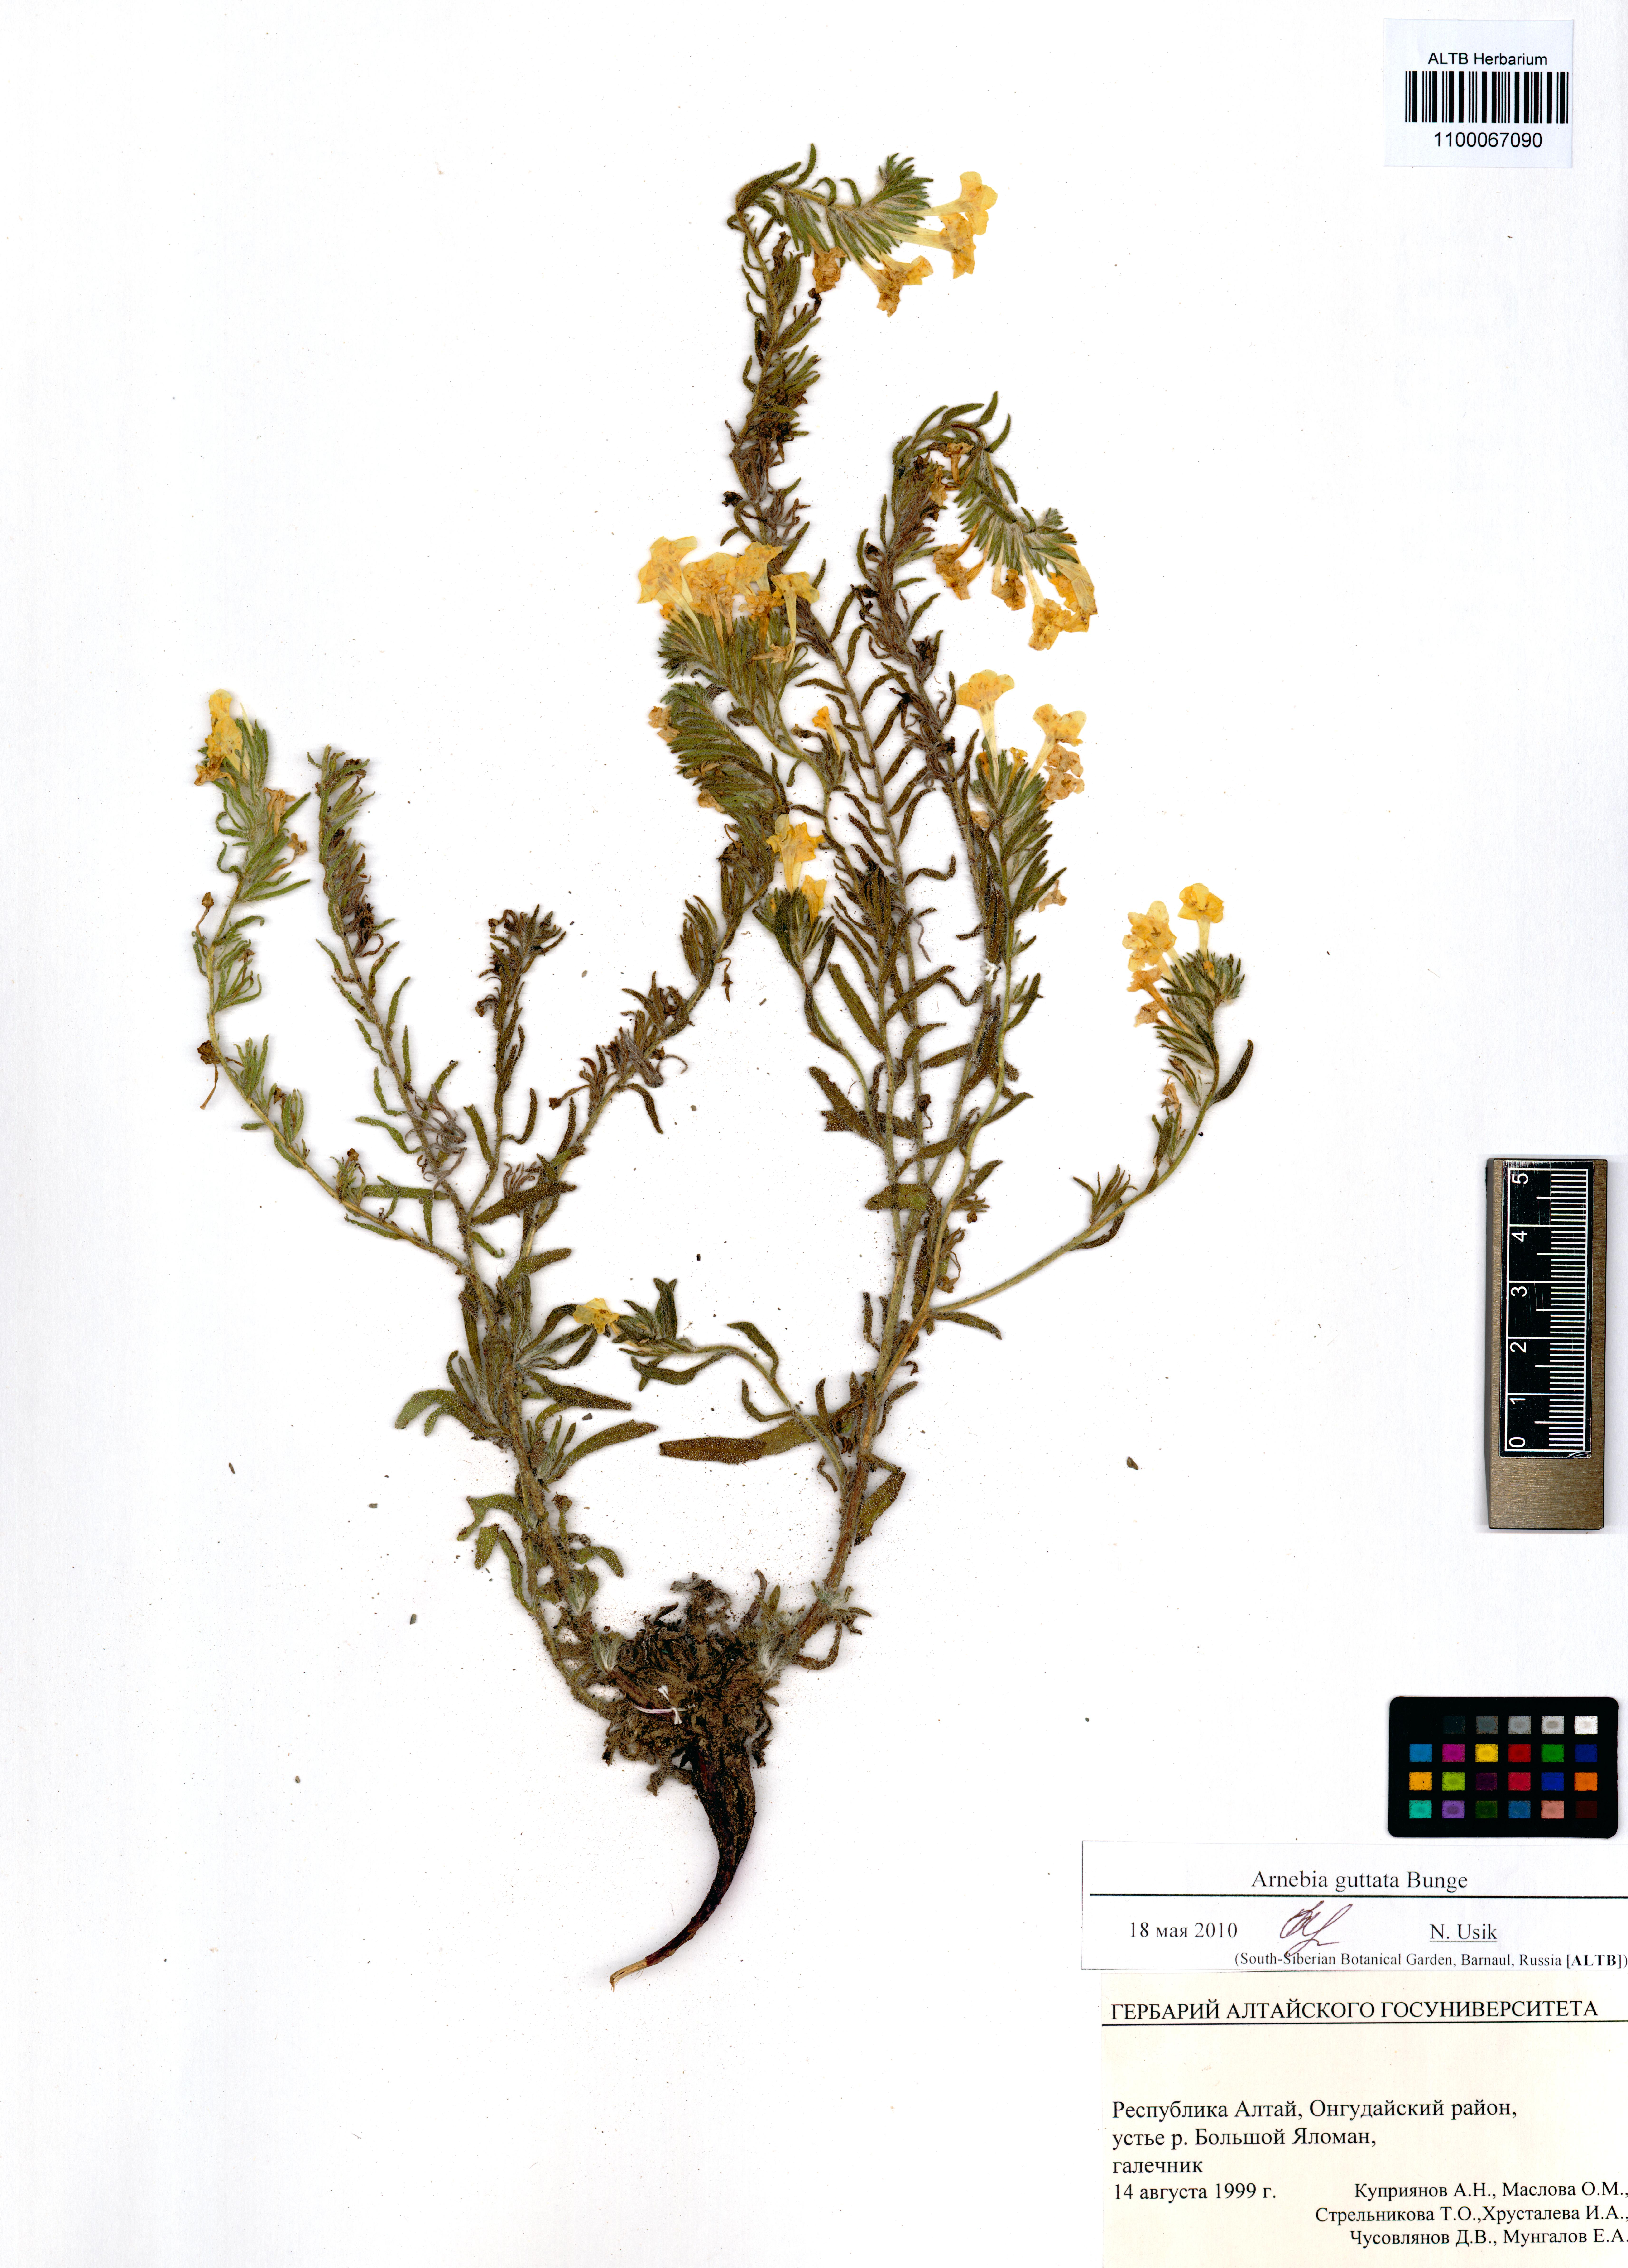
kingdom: Plantae
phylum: Tracheophyta
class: Magnoliopsida
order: Boraginales
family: Boraginaceae
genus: Arnebia
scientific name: Arnebia guttata
